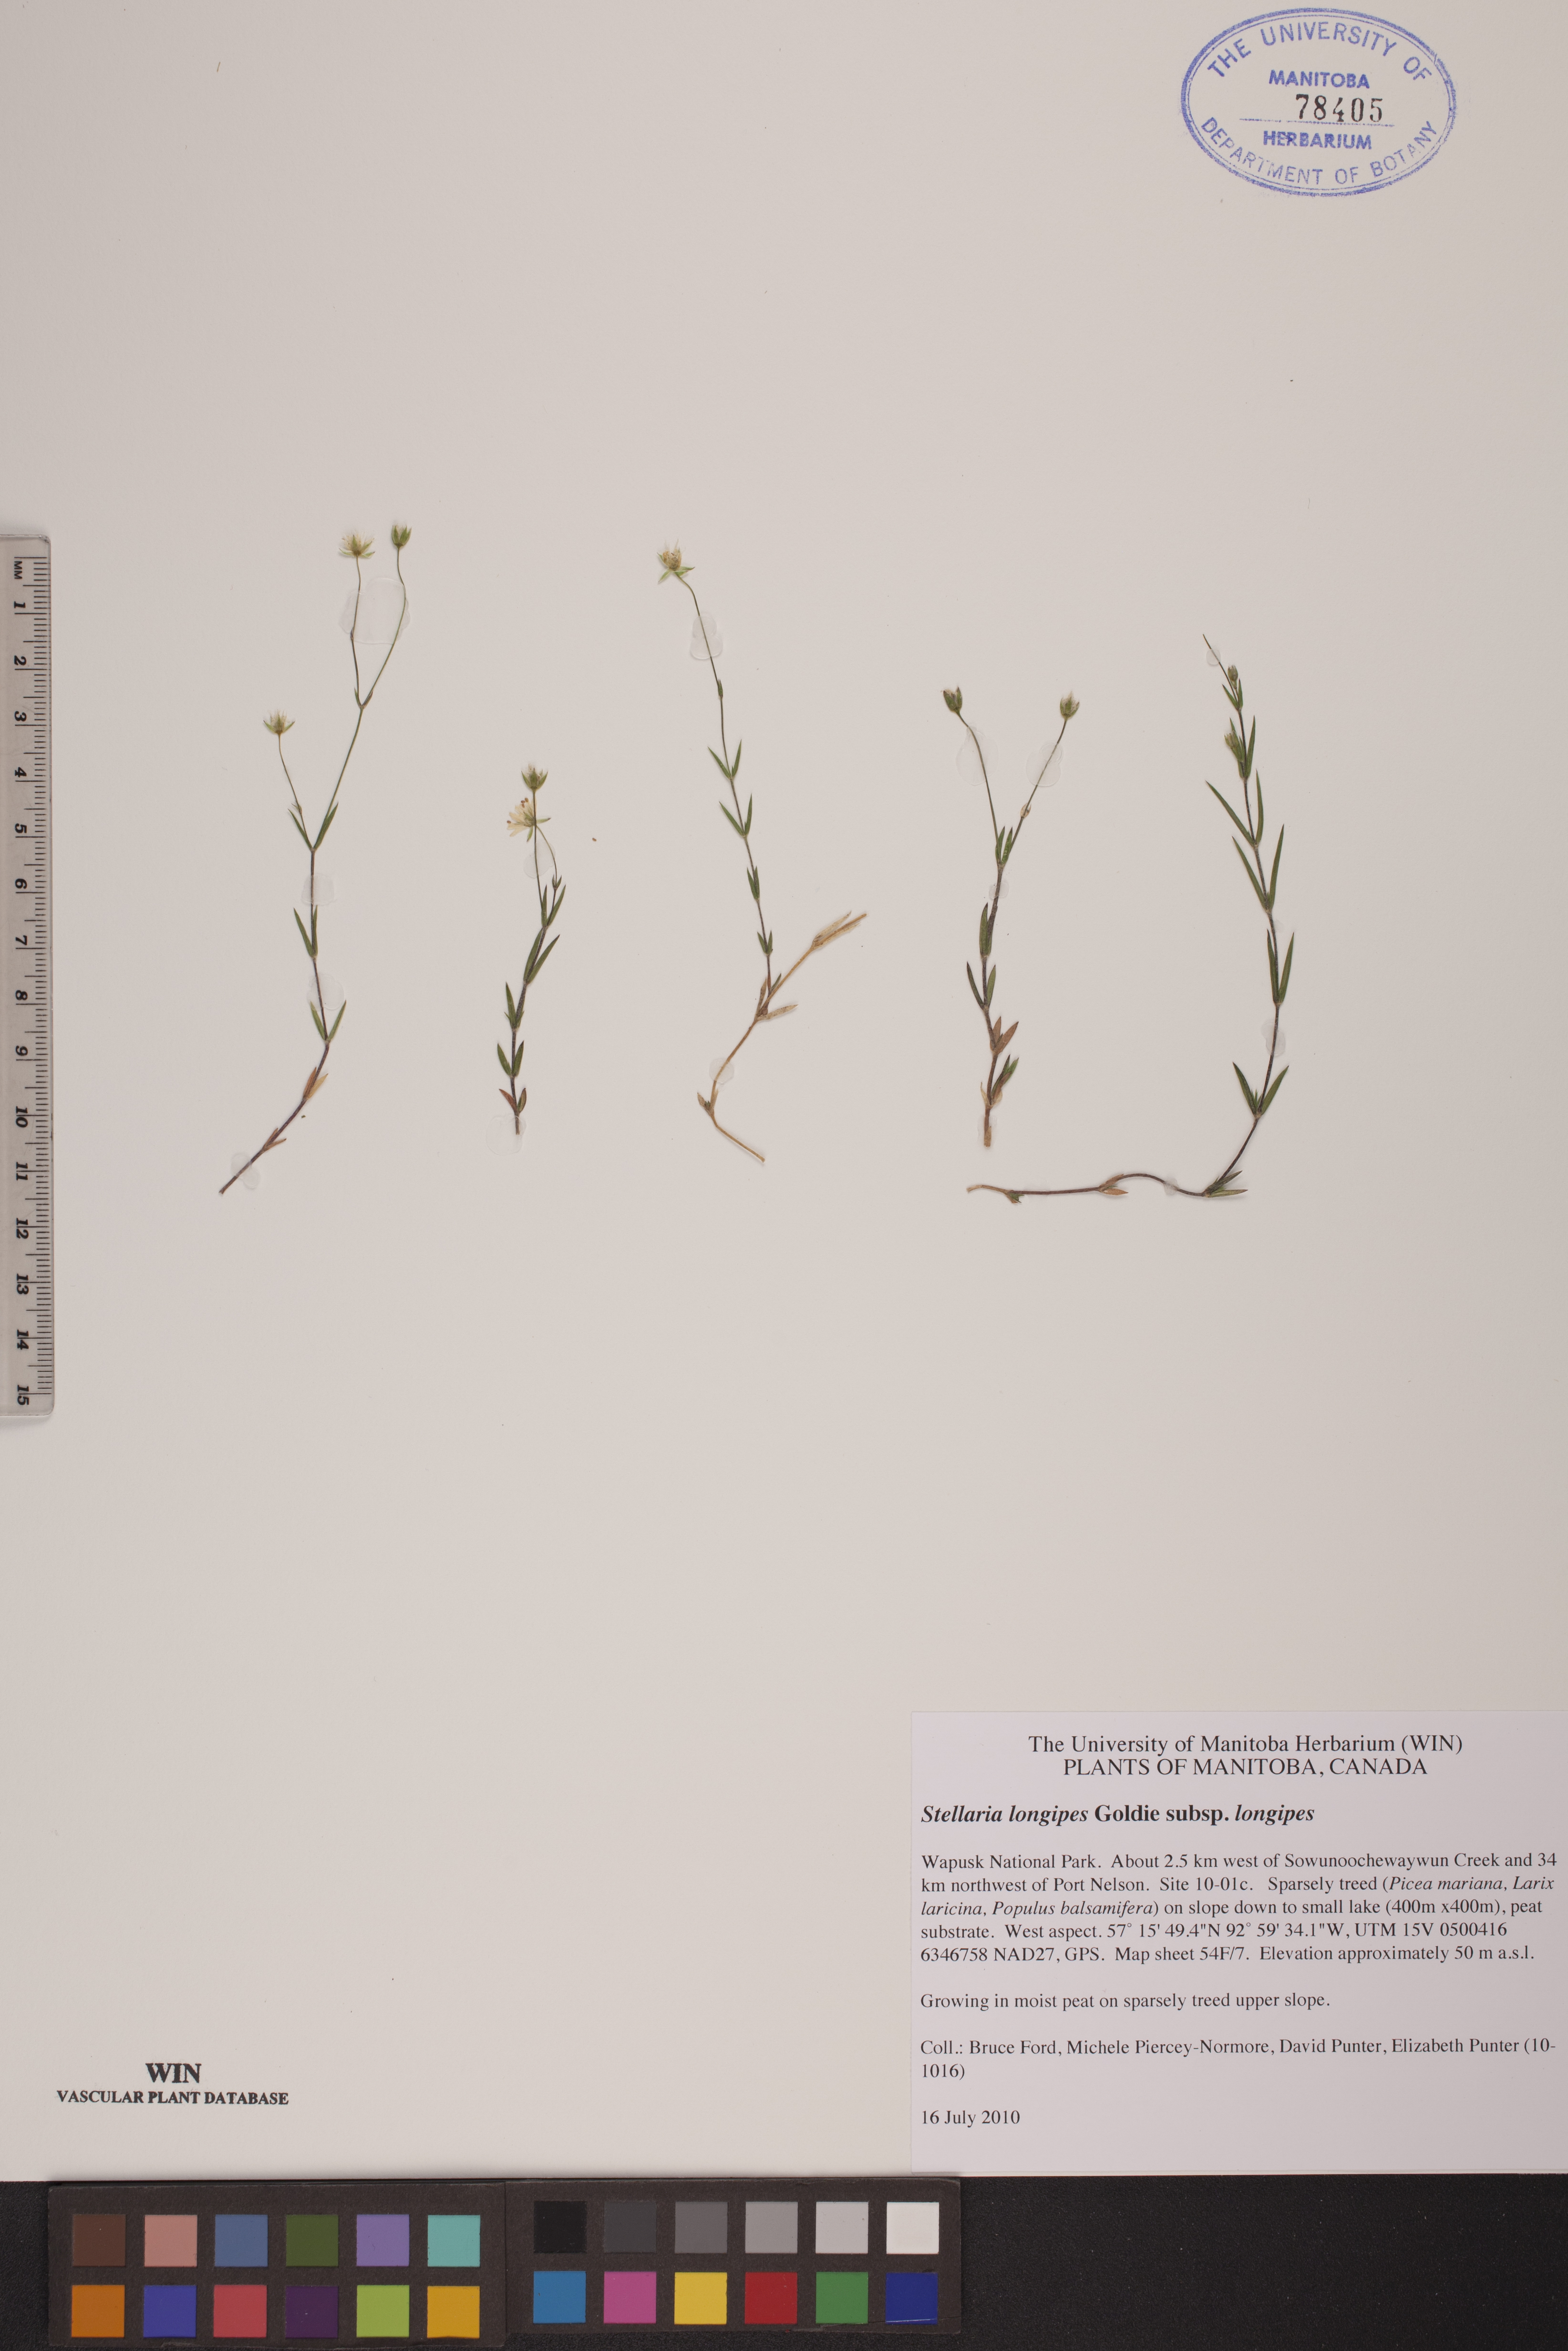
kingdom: Plantae
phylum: Tracheophyta
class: Magnoliopsida
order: Caryophyllales
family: Caryophyllaceae
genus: Stellaria
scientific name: Stellaria longipes
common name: Goldie's starwort
